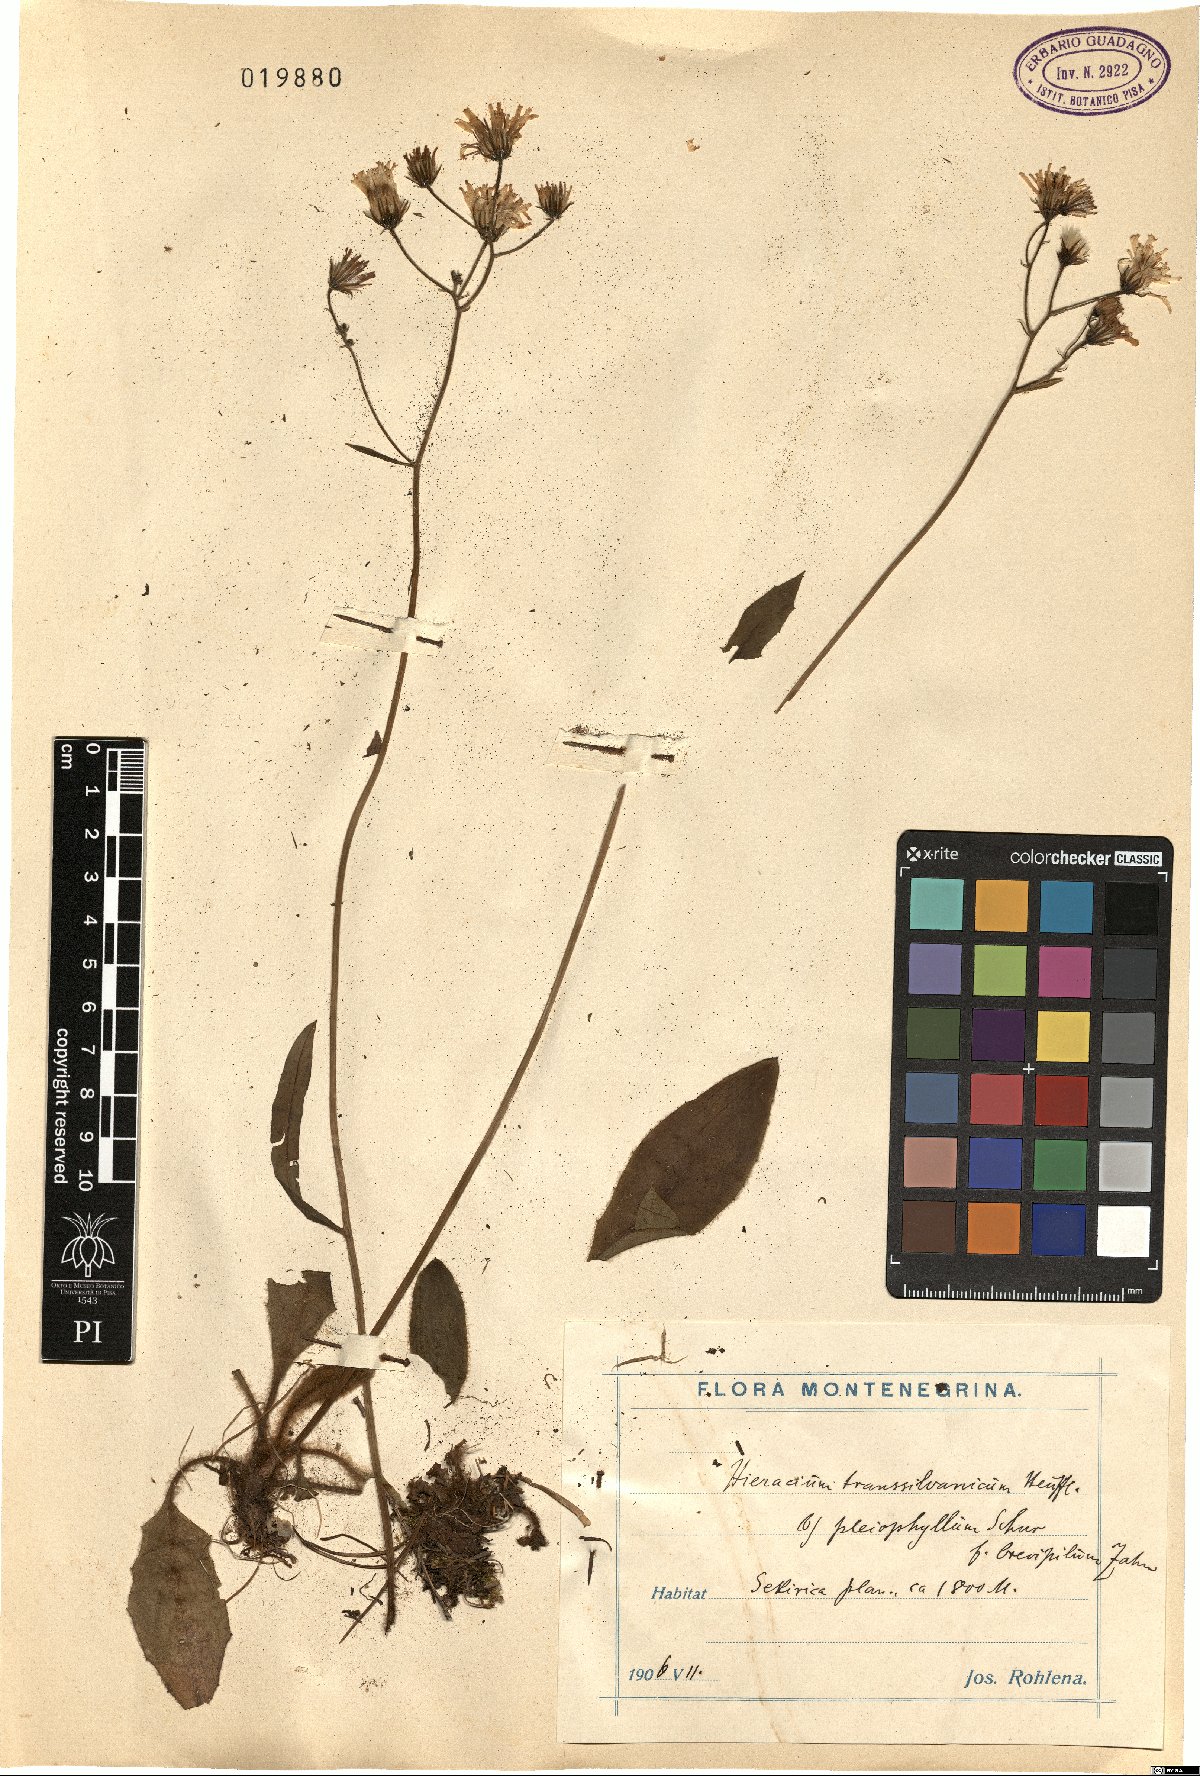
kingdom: Plantae
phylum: Tracheophyta
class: Magnoliopsida
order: Asterales
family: Asteraceae
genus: Hieracium
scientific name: Hieracium transylvanicum
